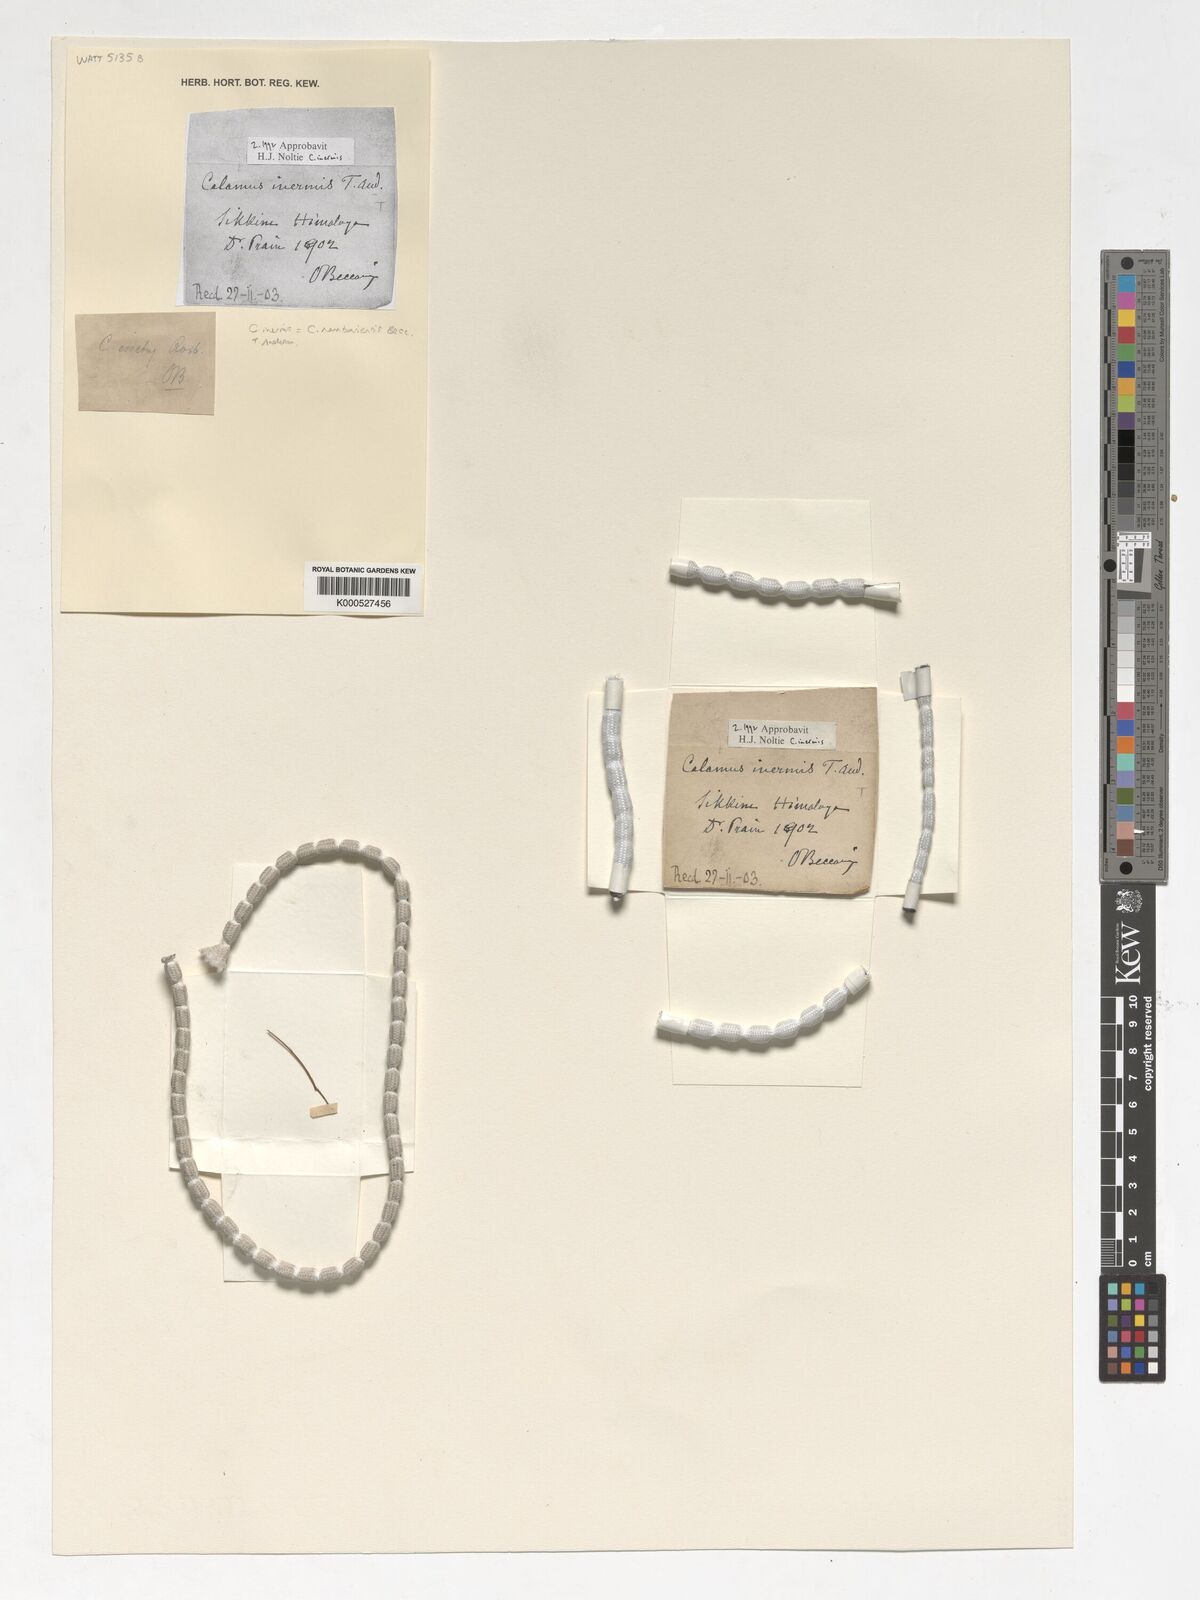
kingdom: Plantae
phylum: Tracheophyta
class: Liliopsida
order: Arecales
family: Arecaceae
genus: Calamus
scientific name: Calamus inermis
